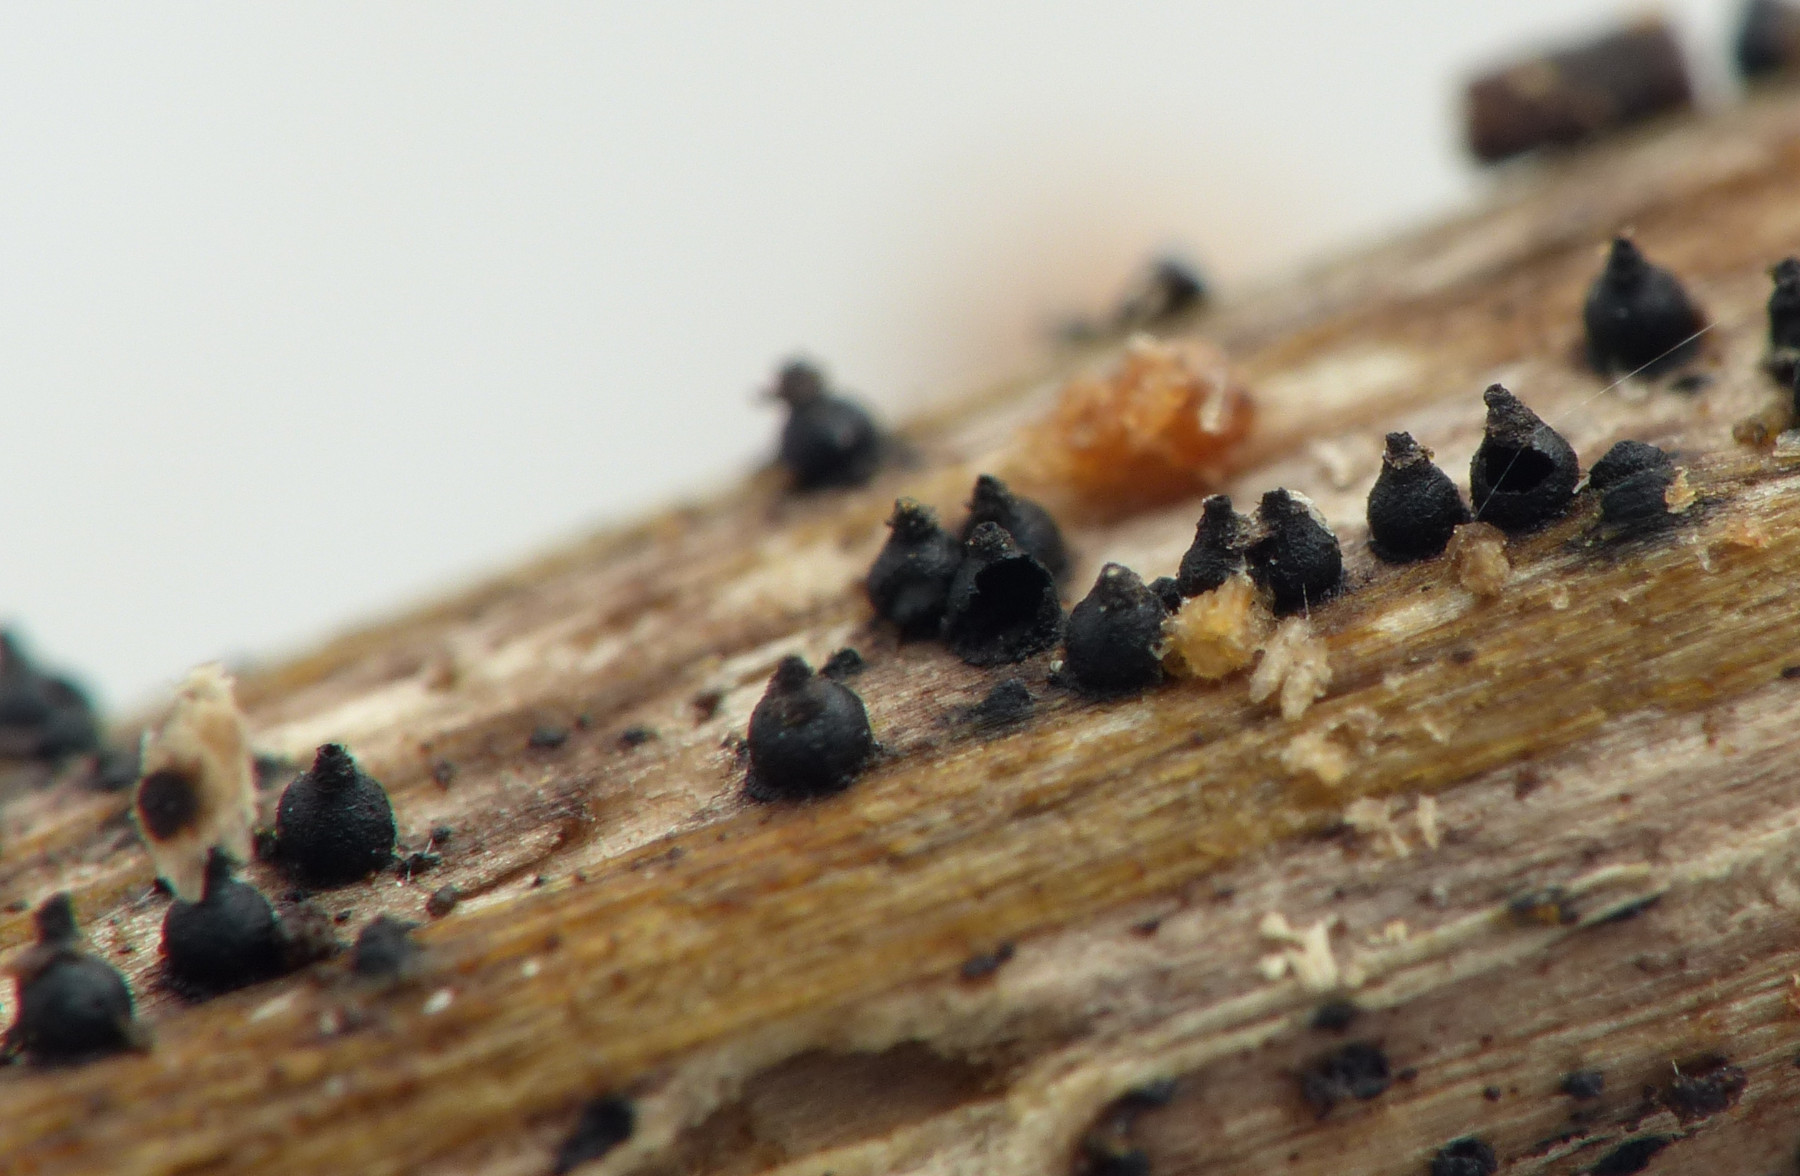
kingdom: Fungi
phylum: Ascomycota
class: Dothideomycetes
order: Pleosporales
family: Leptosphaeriaceae
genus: Leptosphaeria
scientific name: Leptosphaeria
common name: kulkegle
